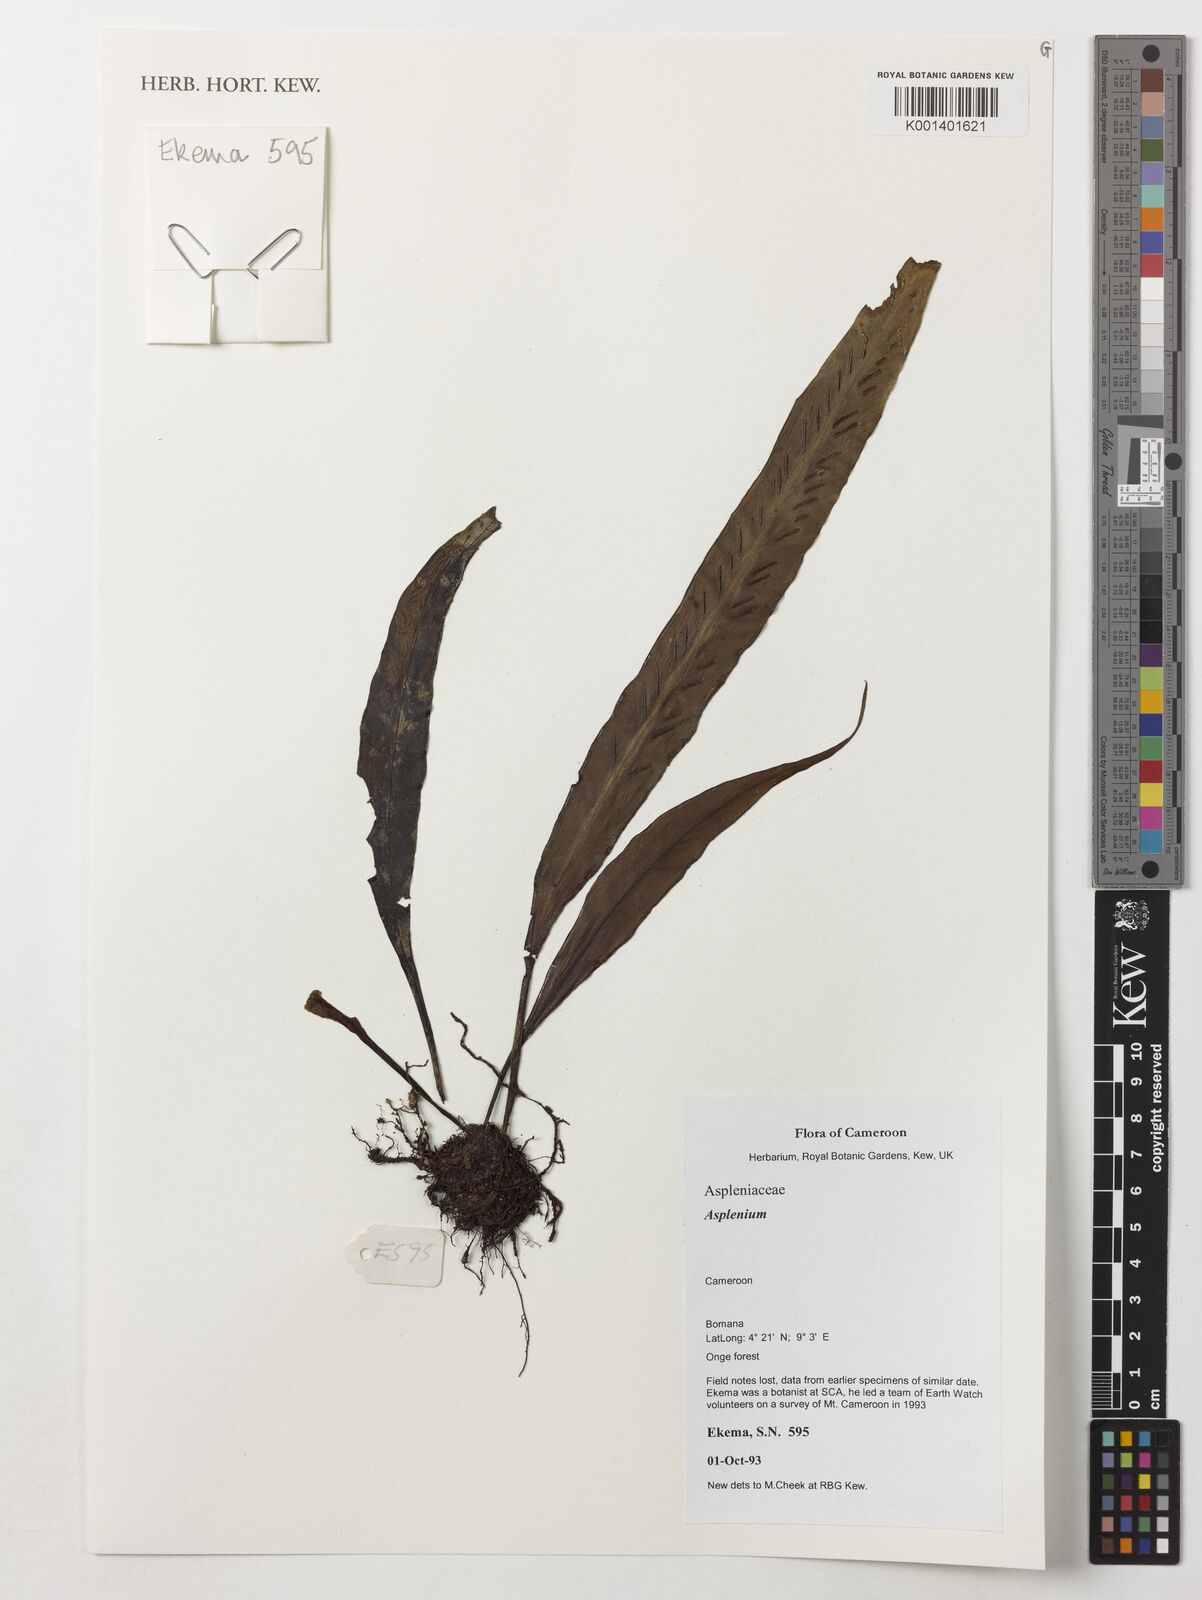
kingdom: Plantae
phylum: Tracheophyta
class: Polypodiopsida
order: Polypodiales
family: Aspleniaceae
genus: Asplenium
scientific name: Asplenium
